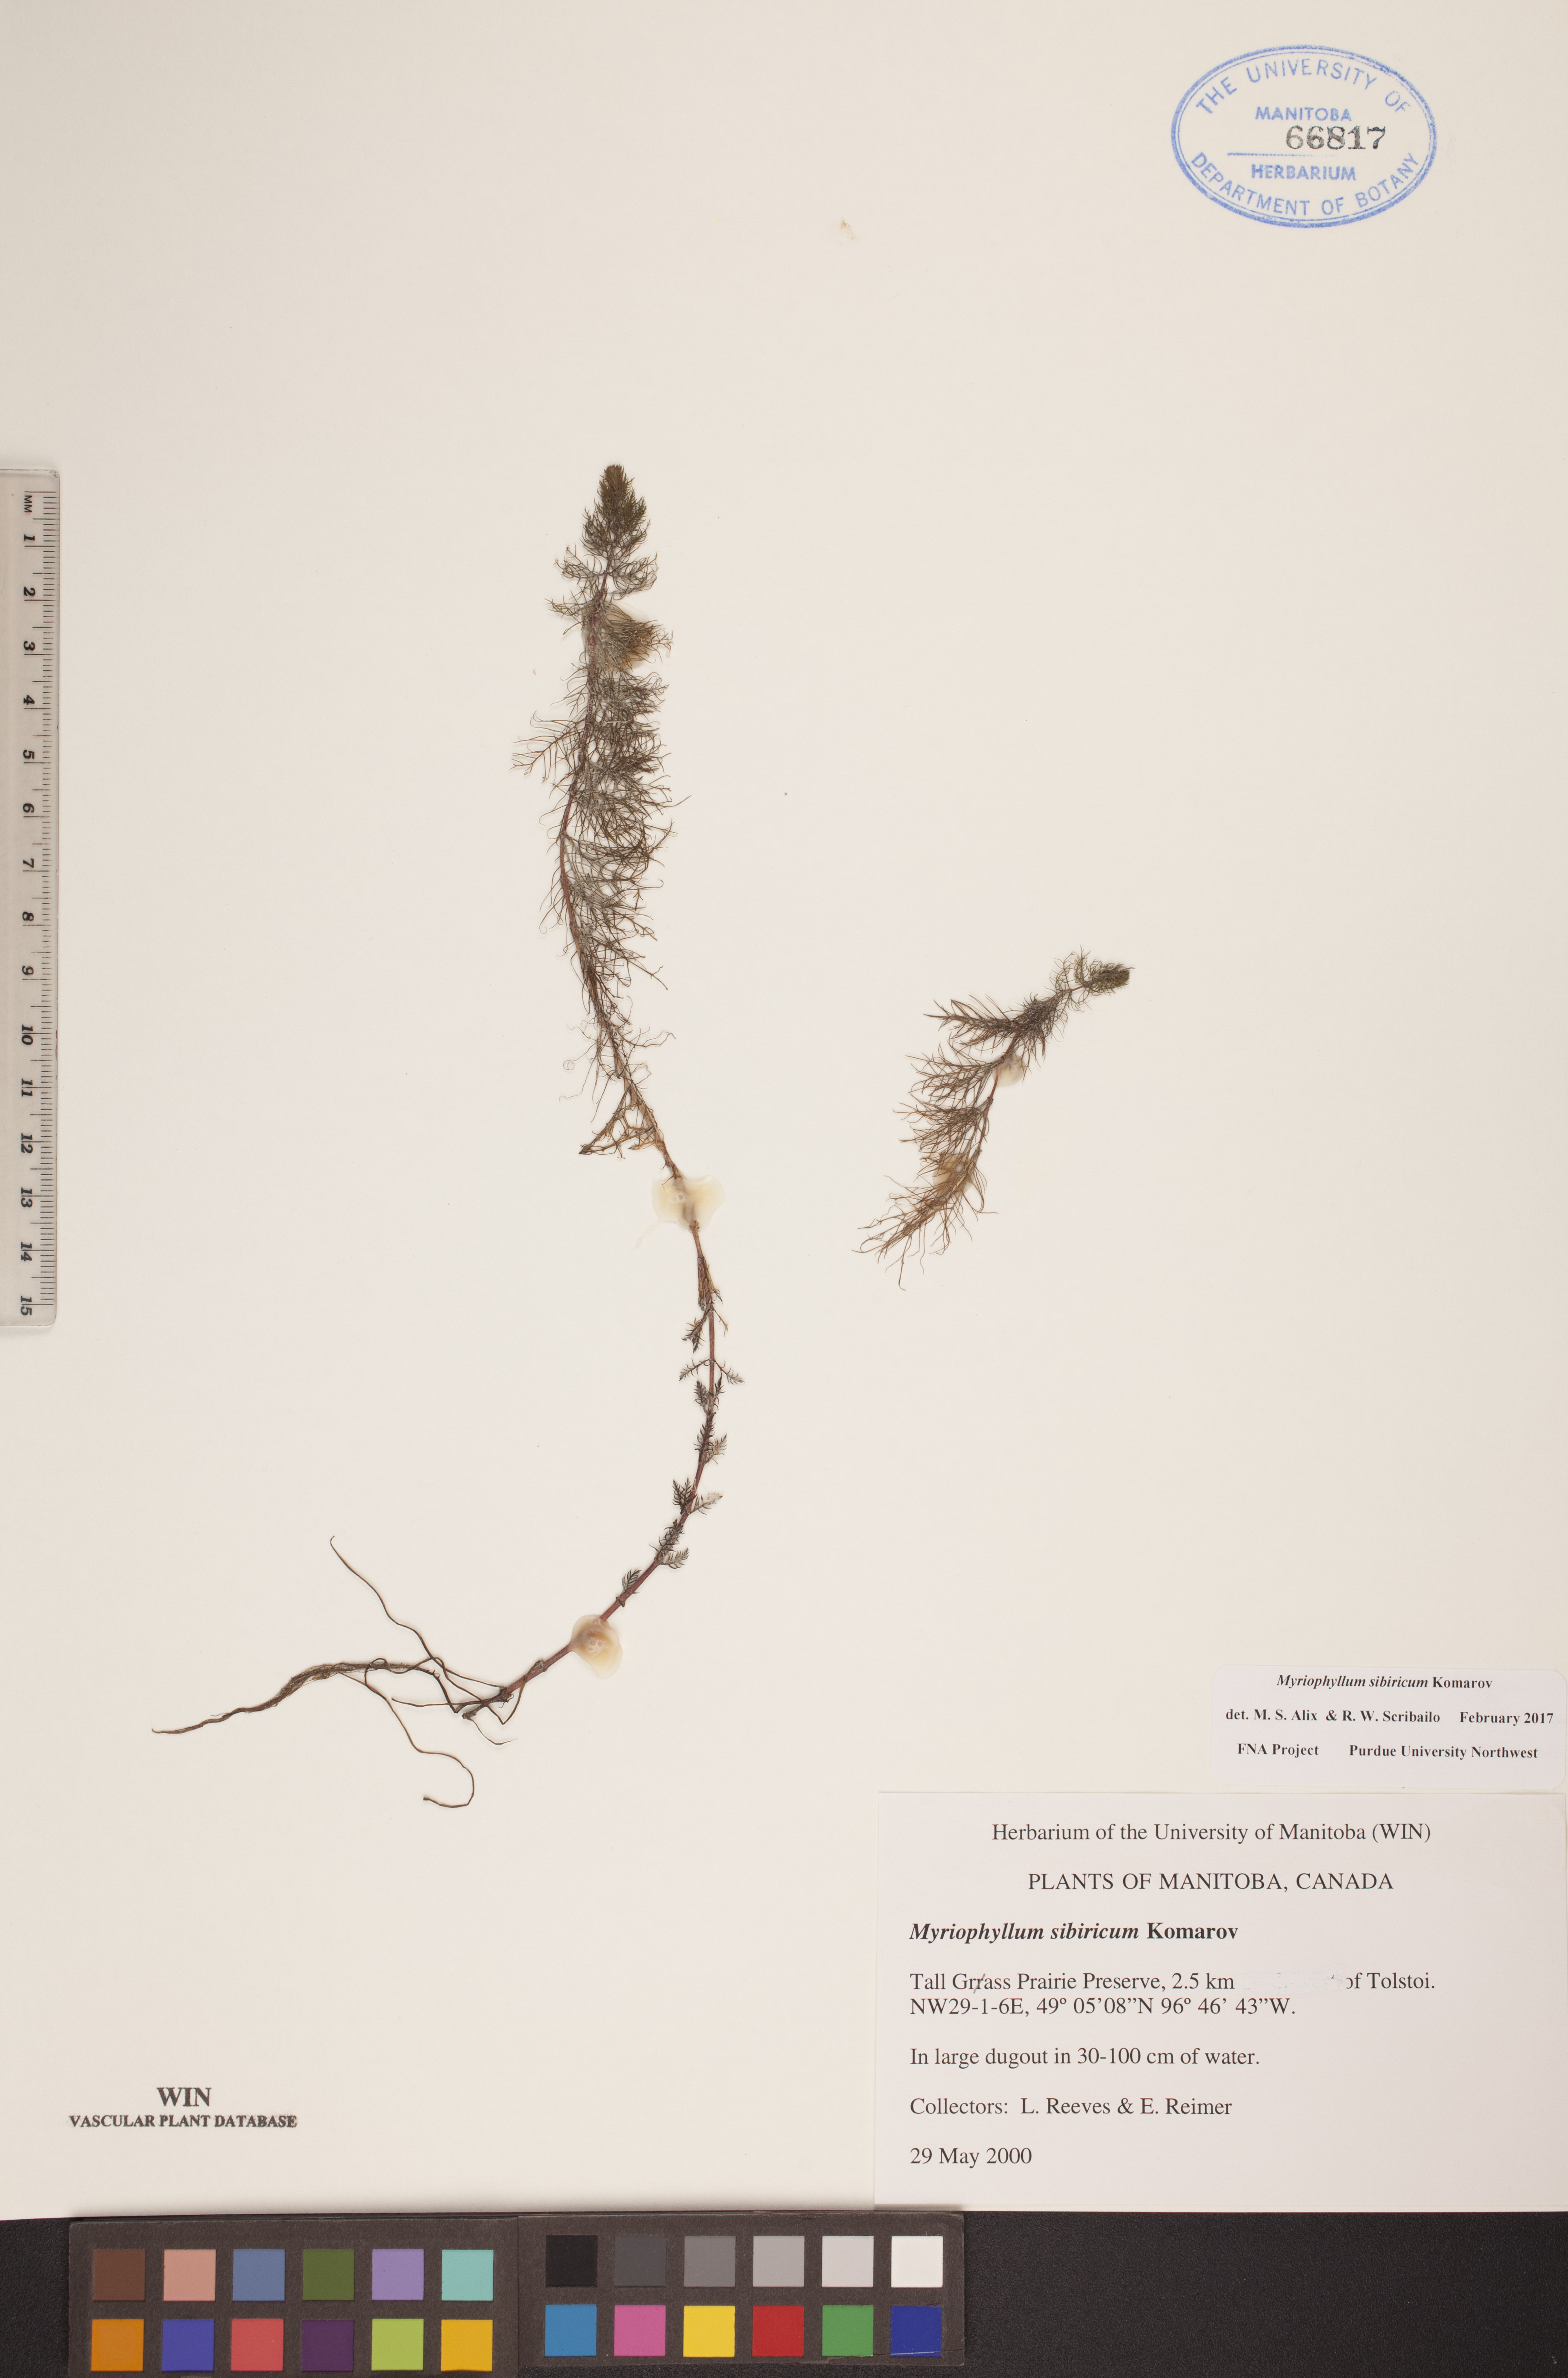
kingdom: Plantae
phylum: Tracheophyta
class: Magnoliopsida
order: Saxifragales
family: Haloragaceae
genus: Myriophyllum
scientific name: Myriophyllum sibiricum
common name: Siberian water-milfoil
